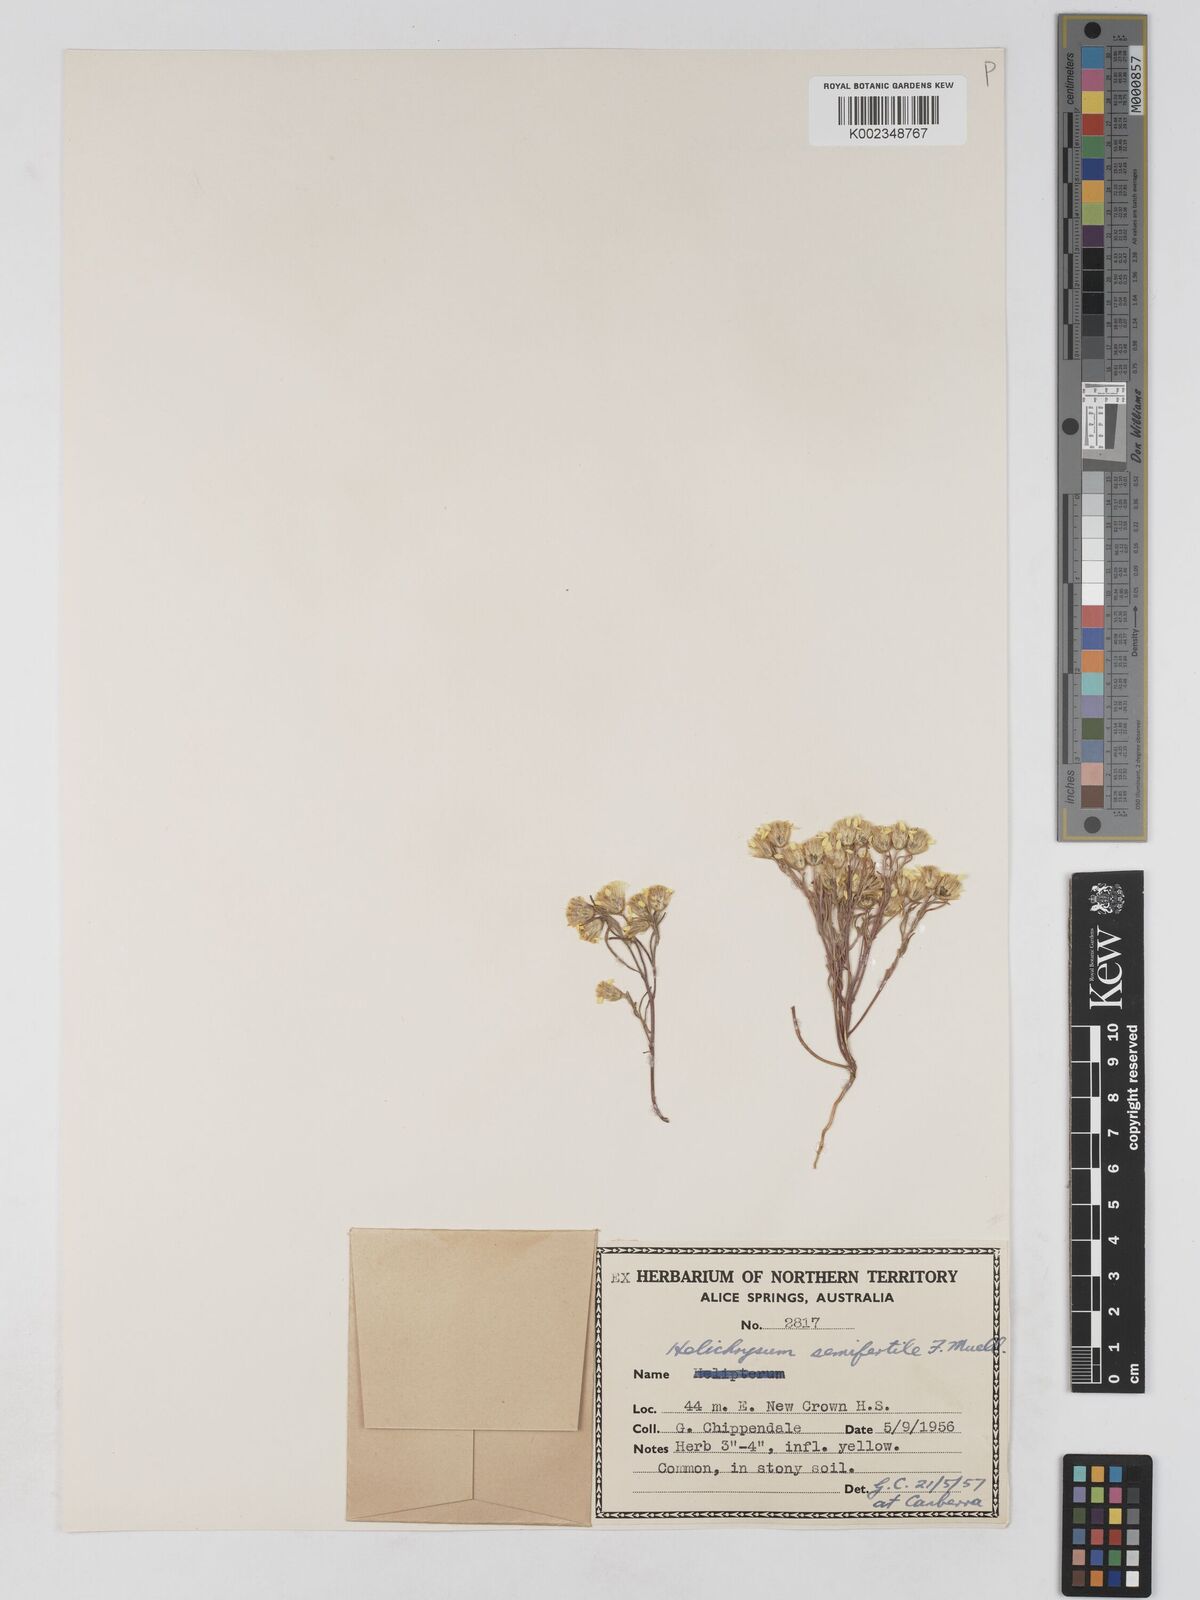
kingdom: Plantae
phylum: Tracheophyta
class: Magnoliopsida
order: Asterales
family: Asteraceae
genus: Schoenia
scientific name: Schoenia ramosissima
